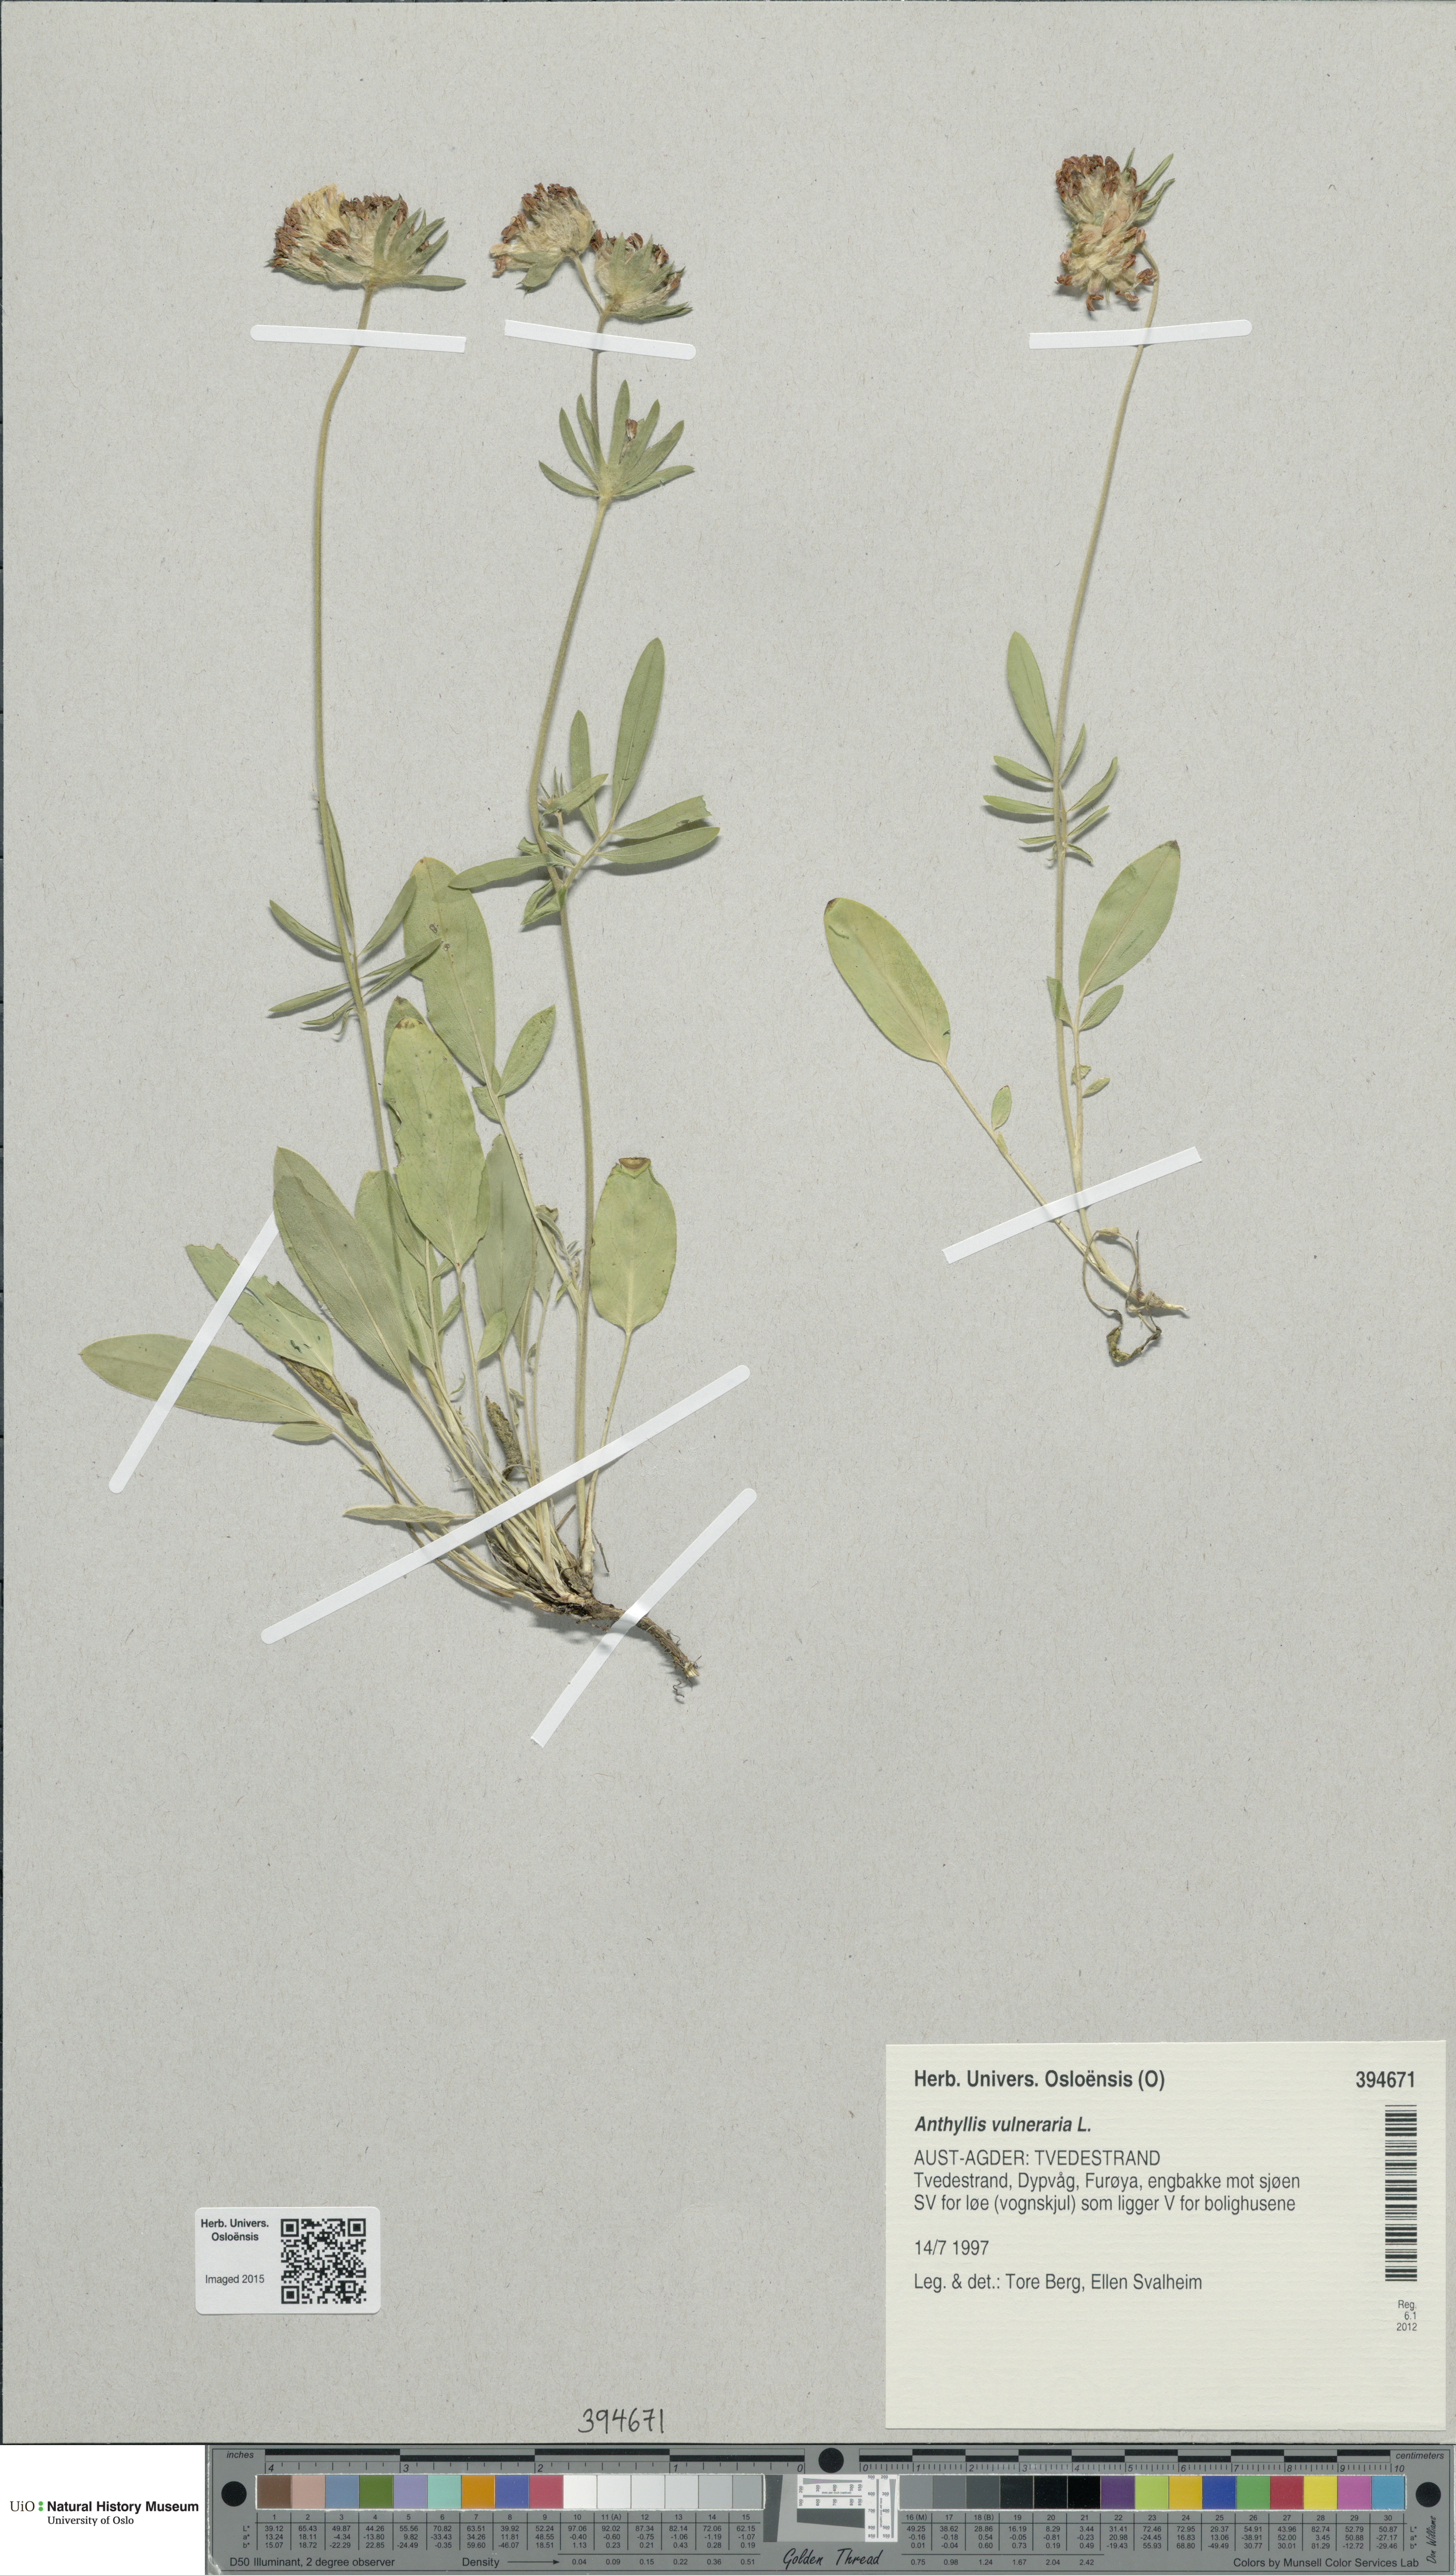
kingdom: Plantae
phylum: Tracheophyta
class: Magnoliopsida
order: Fabales
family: Fabaceae
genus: Anthyllis
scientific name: Anthyllis vulneraria
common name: Kidney vetch
